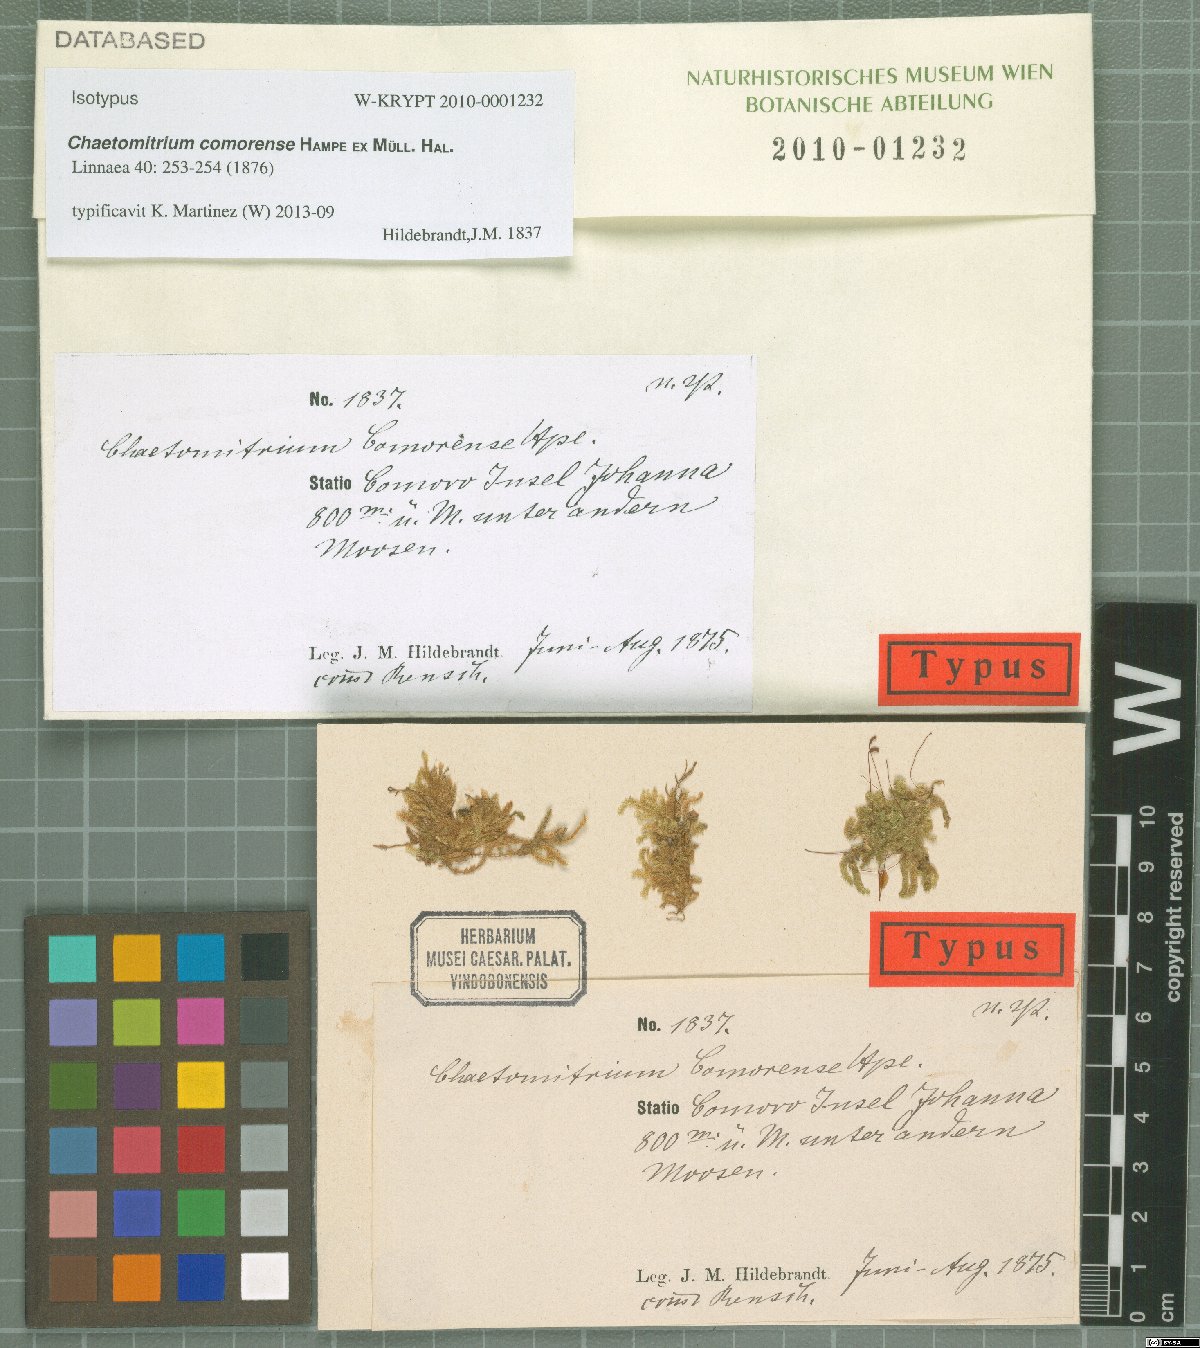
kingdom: Plantae
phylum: Bryophyta
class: Bryopsida
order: Hypnales
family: Symphyodontaceae
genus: Chaetomitrium
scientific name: Chaetomitrium comorense
